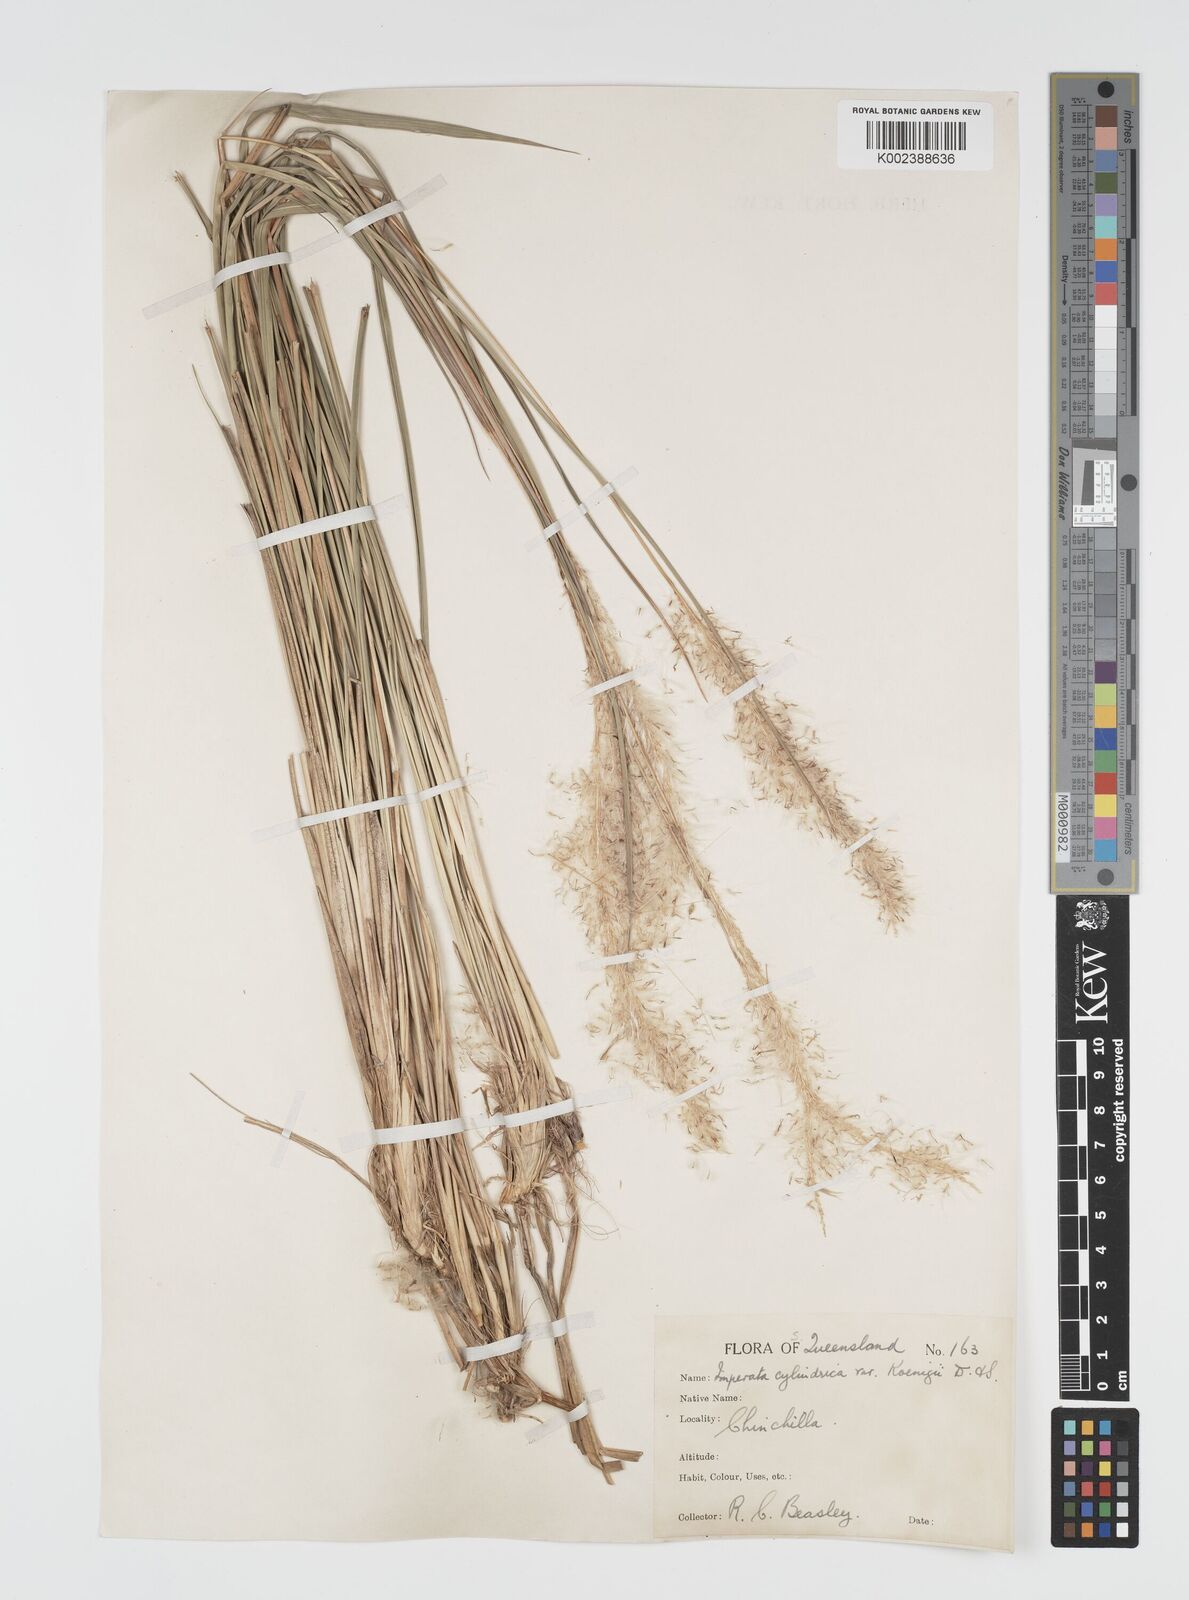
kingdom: Plantae
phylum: Tracheophyta
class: Liliopsida
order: Poales
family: Poaceae
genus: Imperata
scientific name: Imperata cylindrica
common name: Cogongrass
